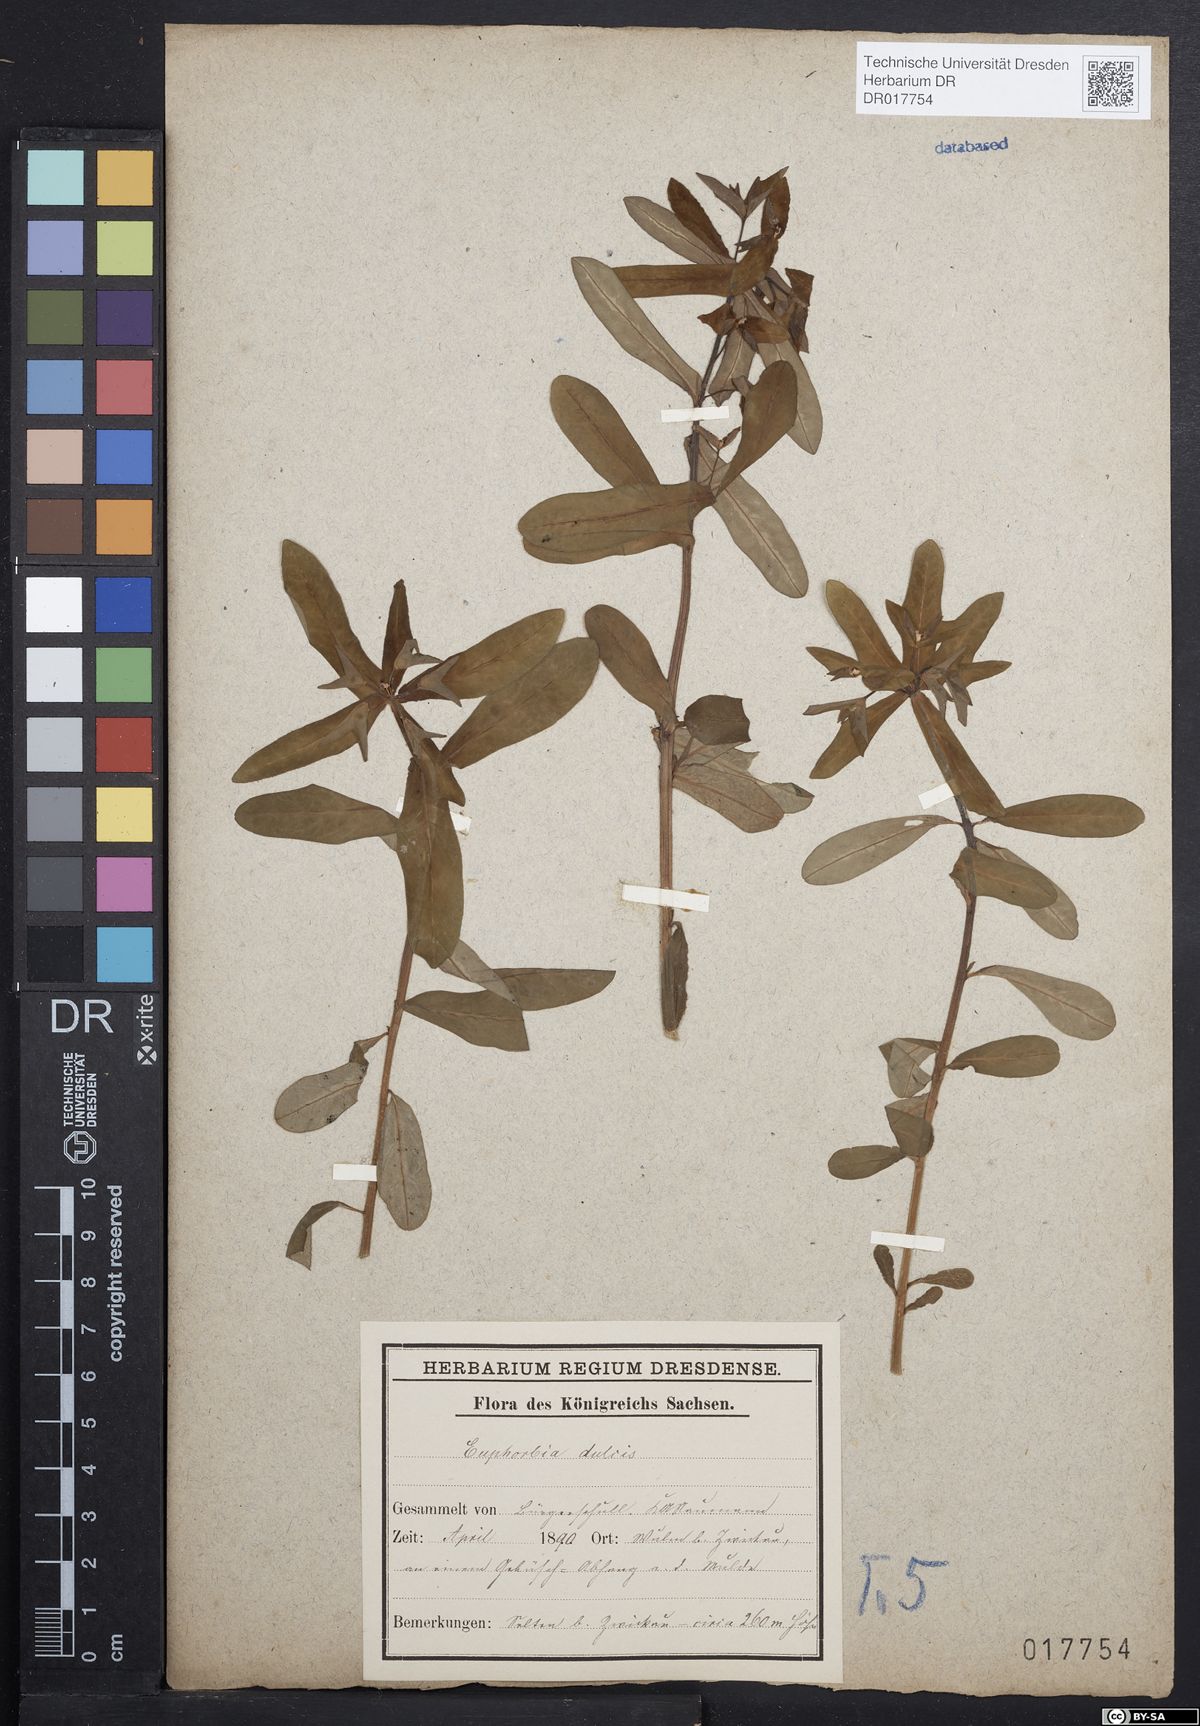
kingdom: Plantae
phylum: Tracheophyta
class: Magnoliopsida
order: Malpighiales
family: Euphorbiaceae
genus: Euphorbia
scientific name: Euphorbia dulcis
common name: Sweet spurge
